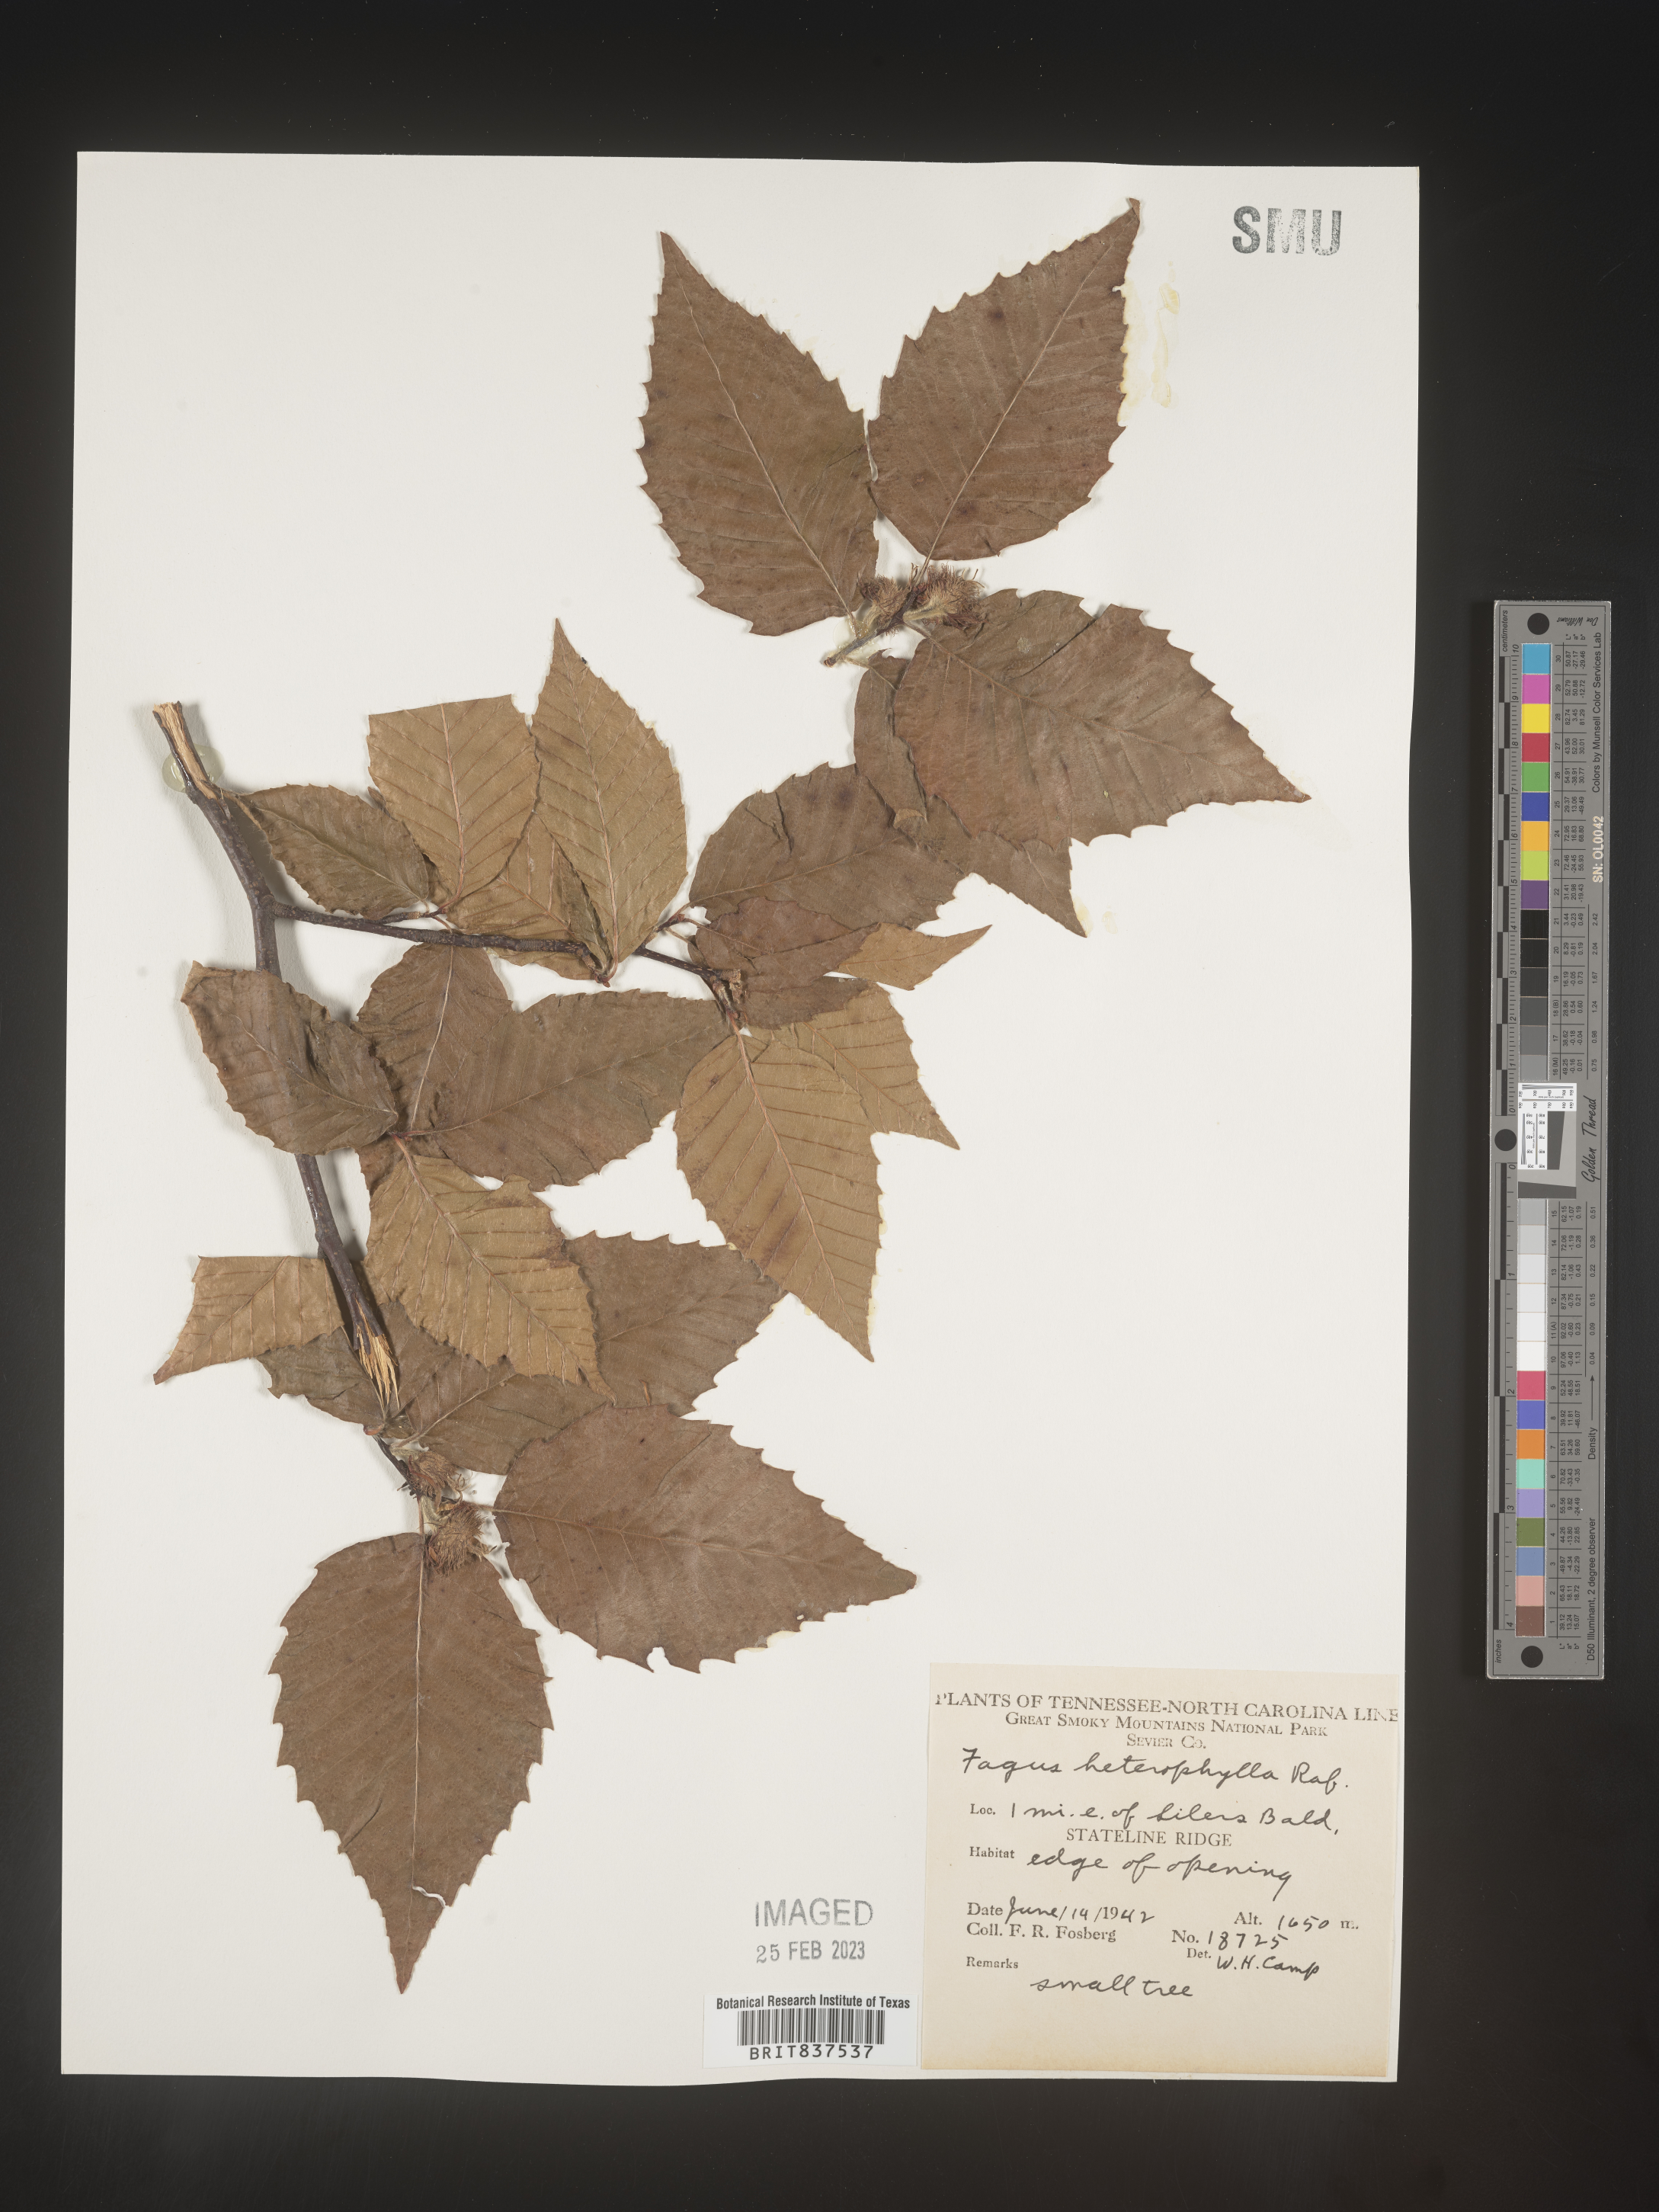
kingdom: Plantae
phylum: Tracheophyta
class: Magnoliopsida
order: Fagales
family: Fagaceae
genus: Fagus
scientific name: Fagus grandifolia
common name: American beech
